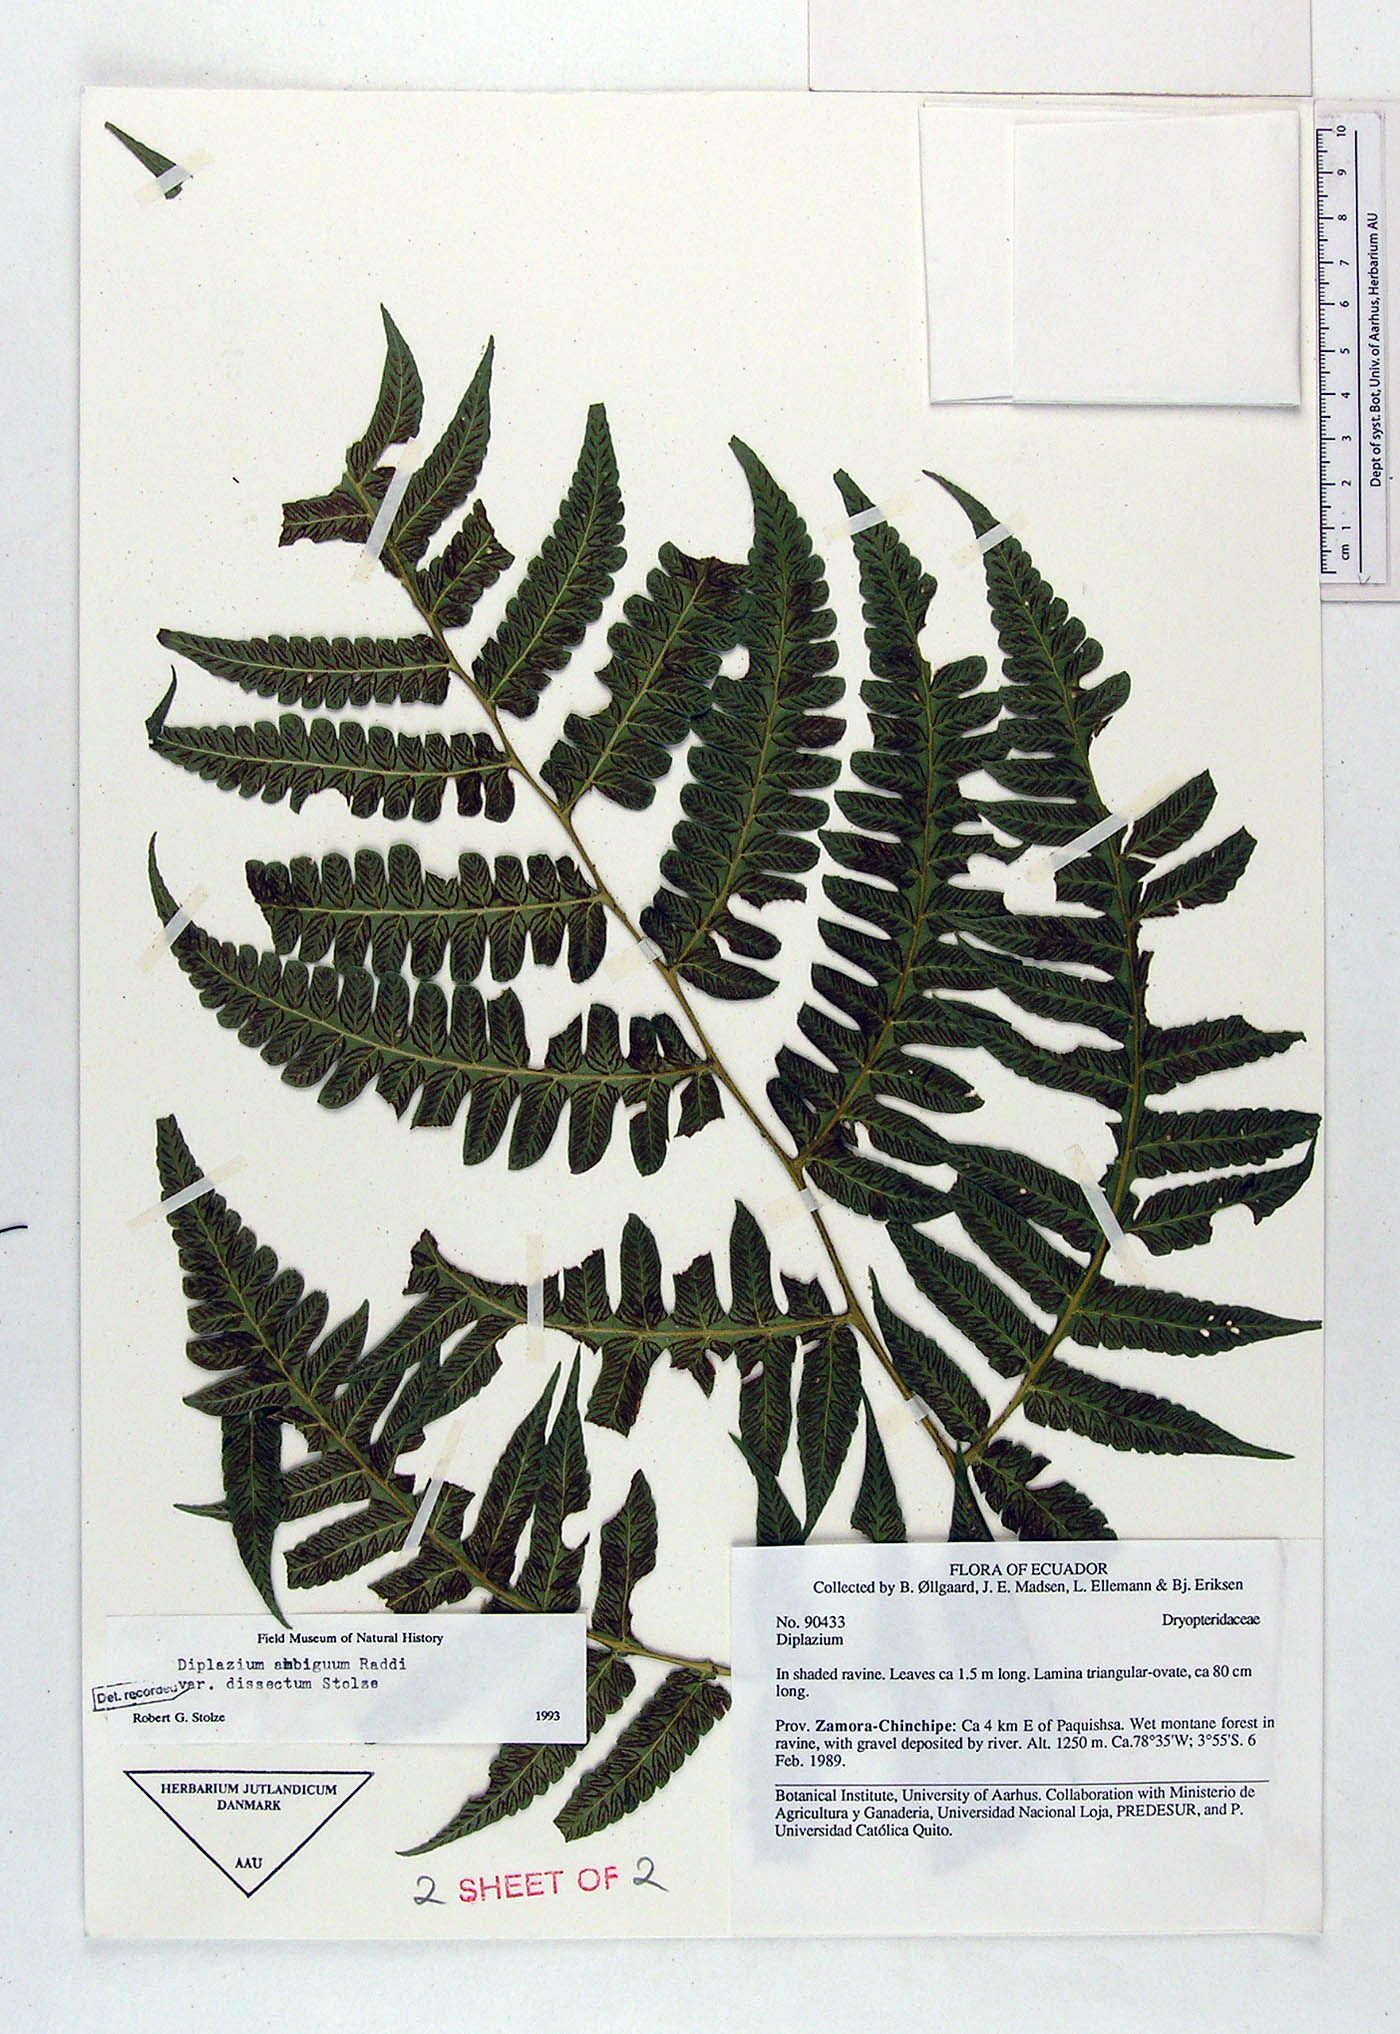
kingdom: Plantae
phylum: Tracheophyta
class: Polypodiopsida
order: Polypodiales
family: Athyriaceae
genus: Diplazium
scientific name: Diplazium ambiguum
